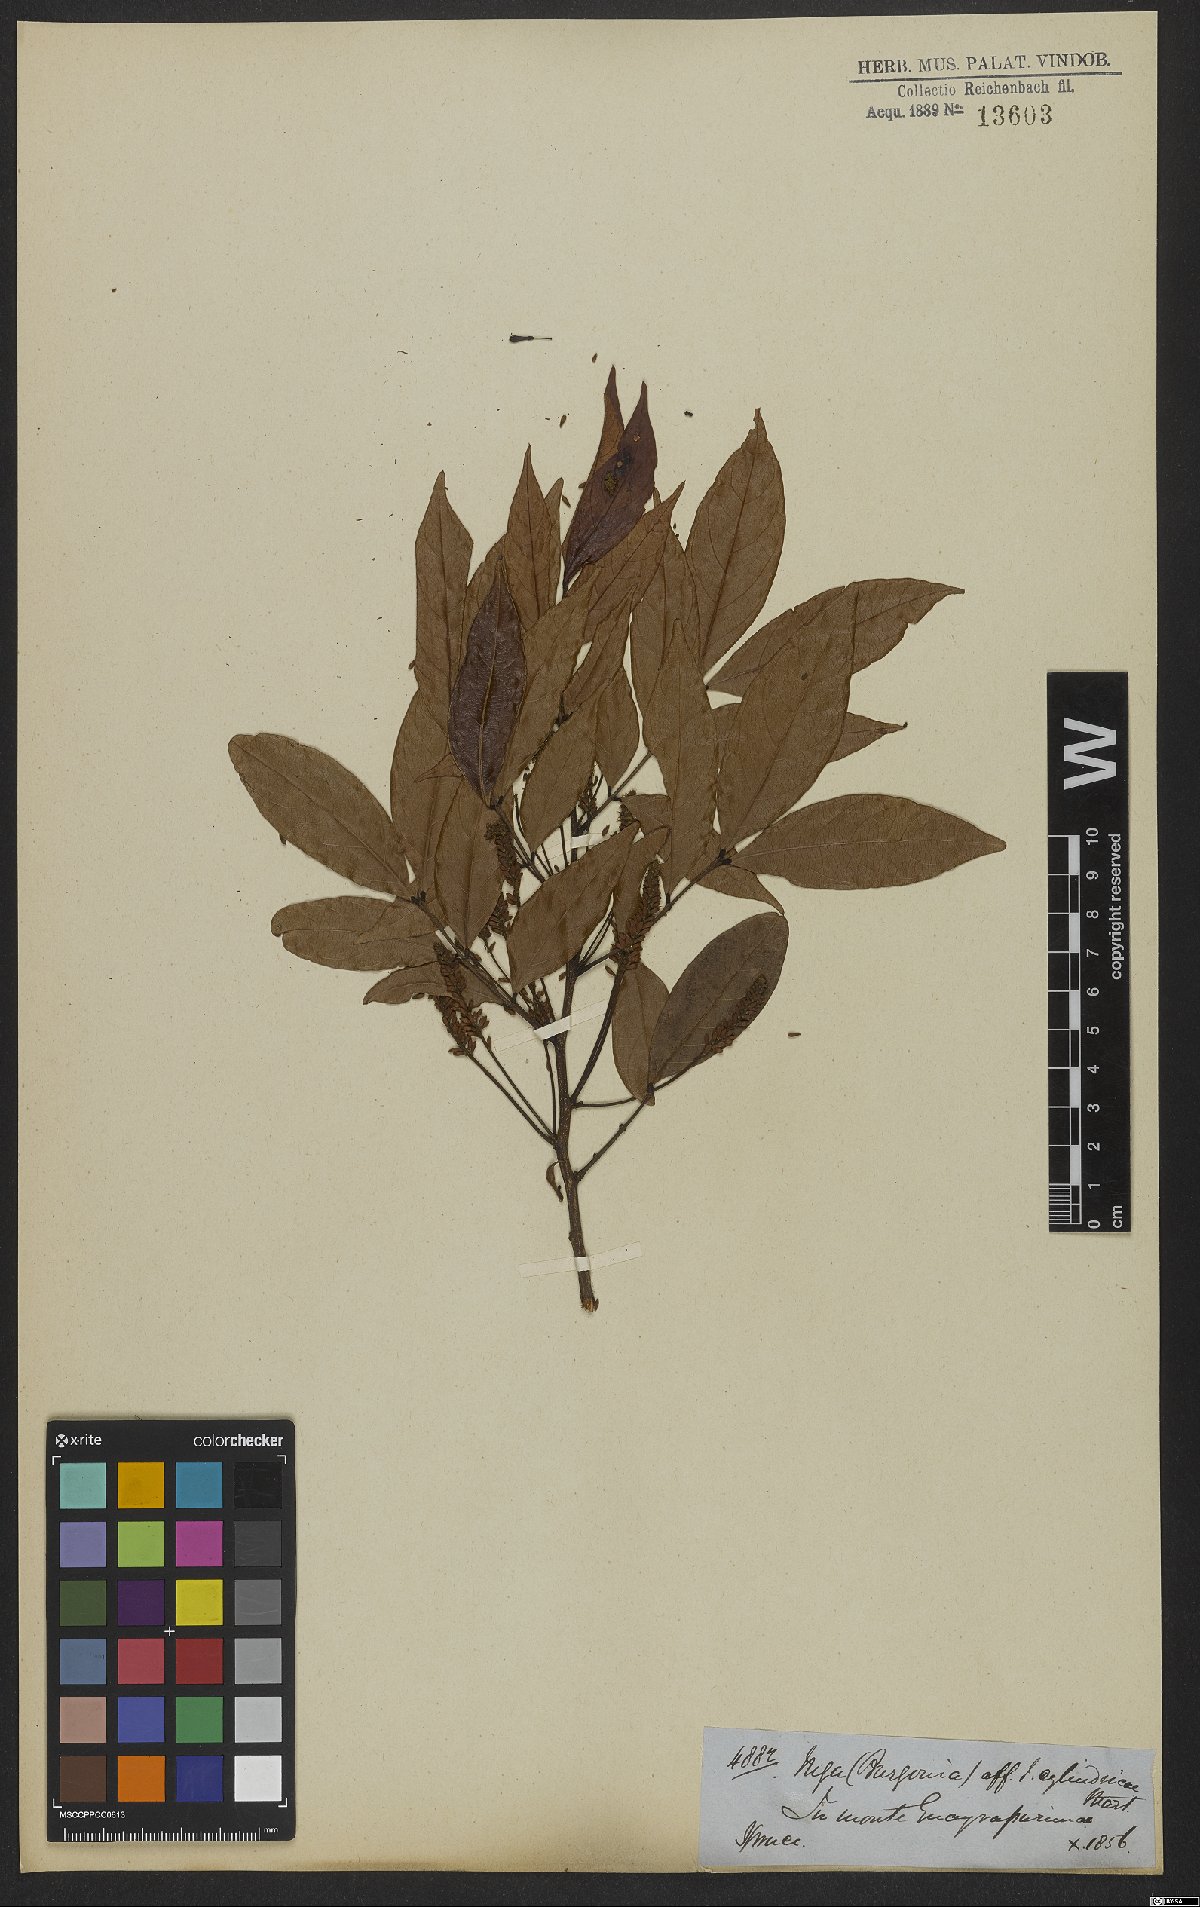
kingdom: Plantae
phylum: Tracheophyta
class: Magnoliopsida
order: Fabales
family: Fabaceae
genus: Inga
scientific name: Inga cylindrica
